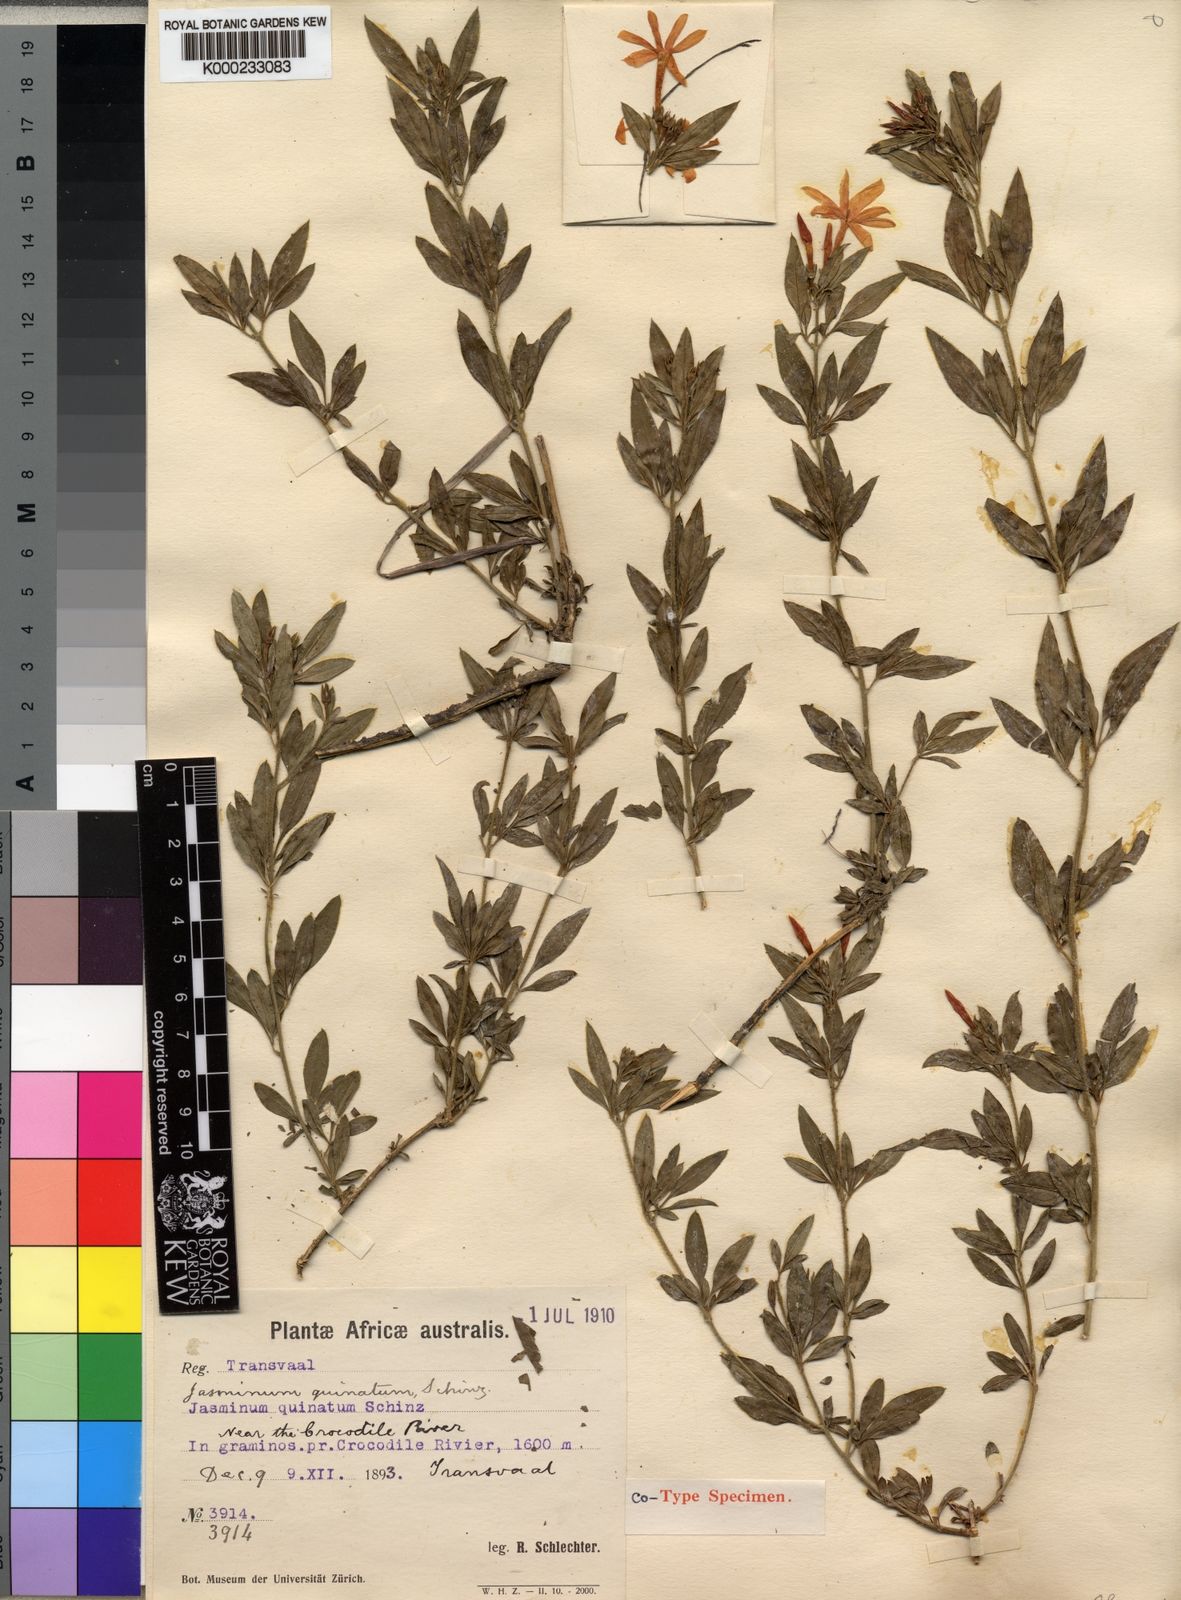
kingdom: Plantae
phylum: Tracheophyta
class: Magnoliopsida
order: Lamiales
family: Oleaceae
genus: Jasminum
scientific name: Jasminum quinatum
